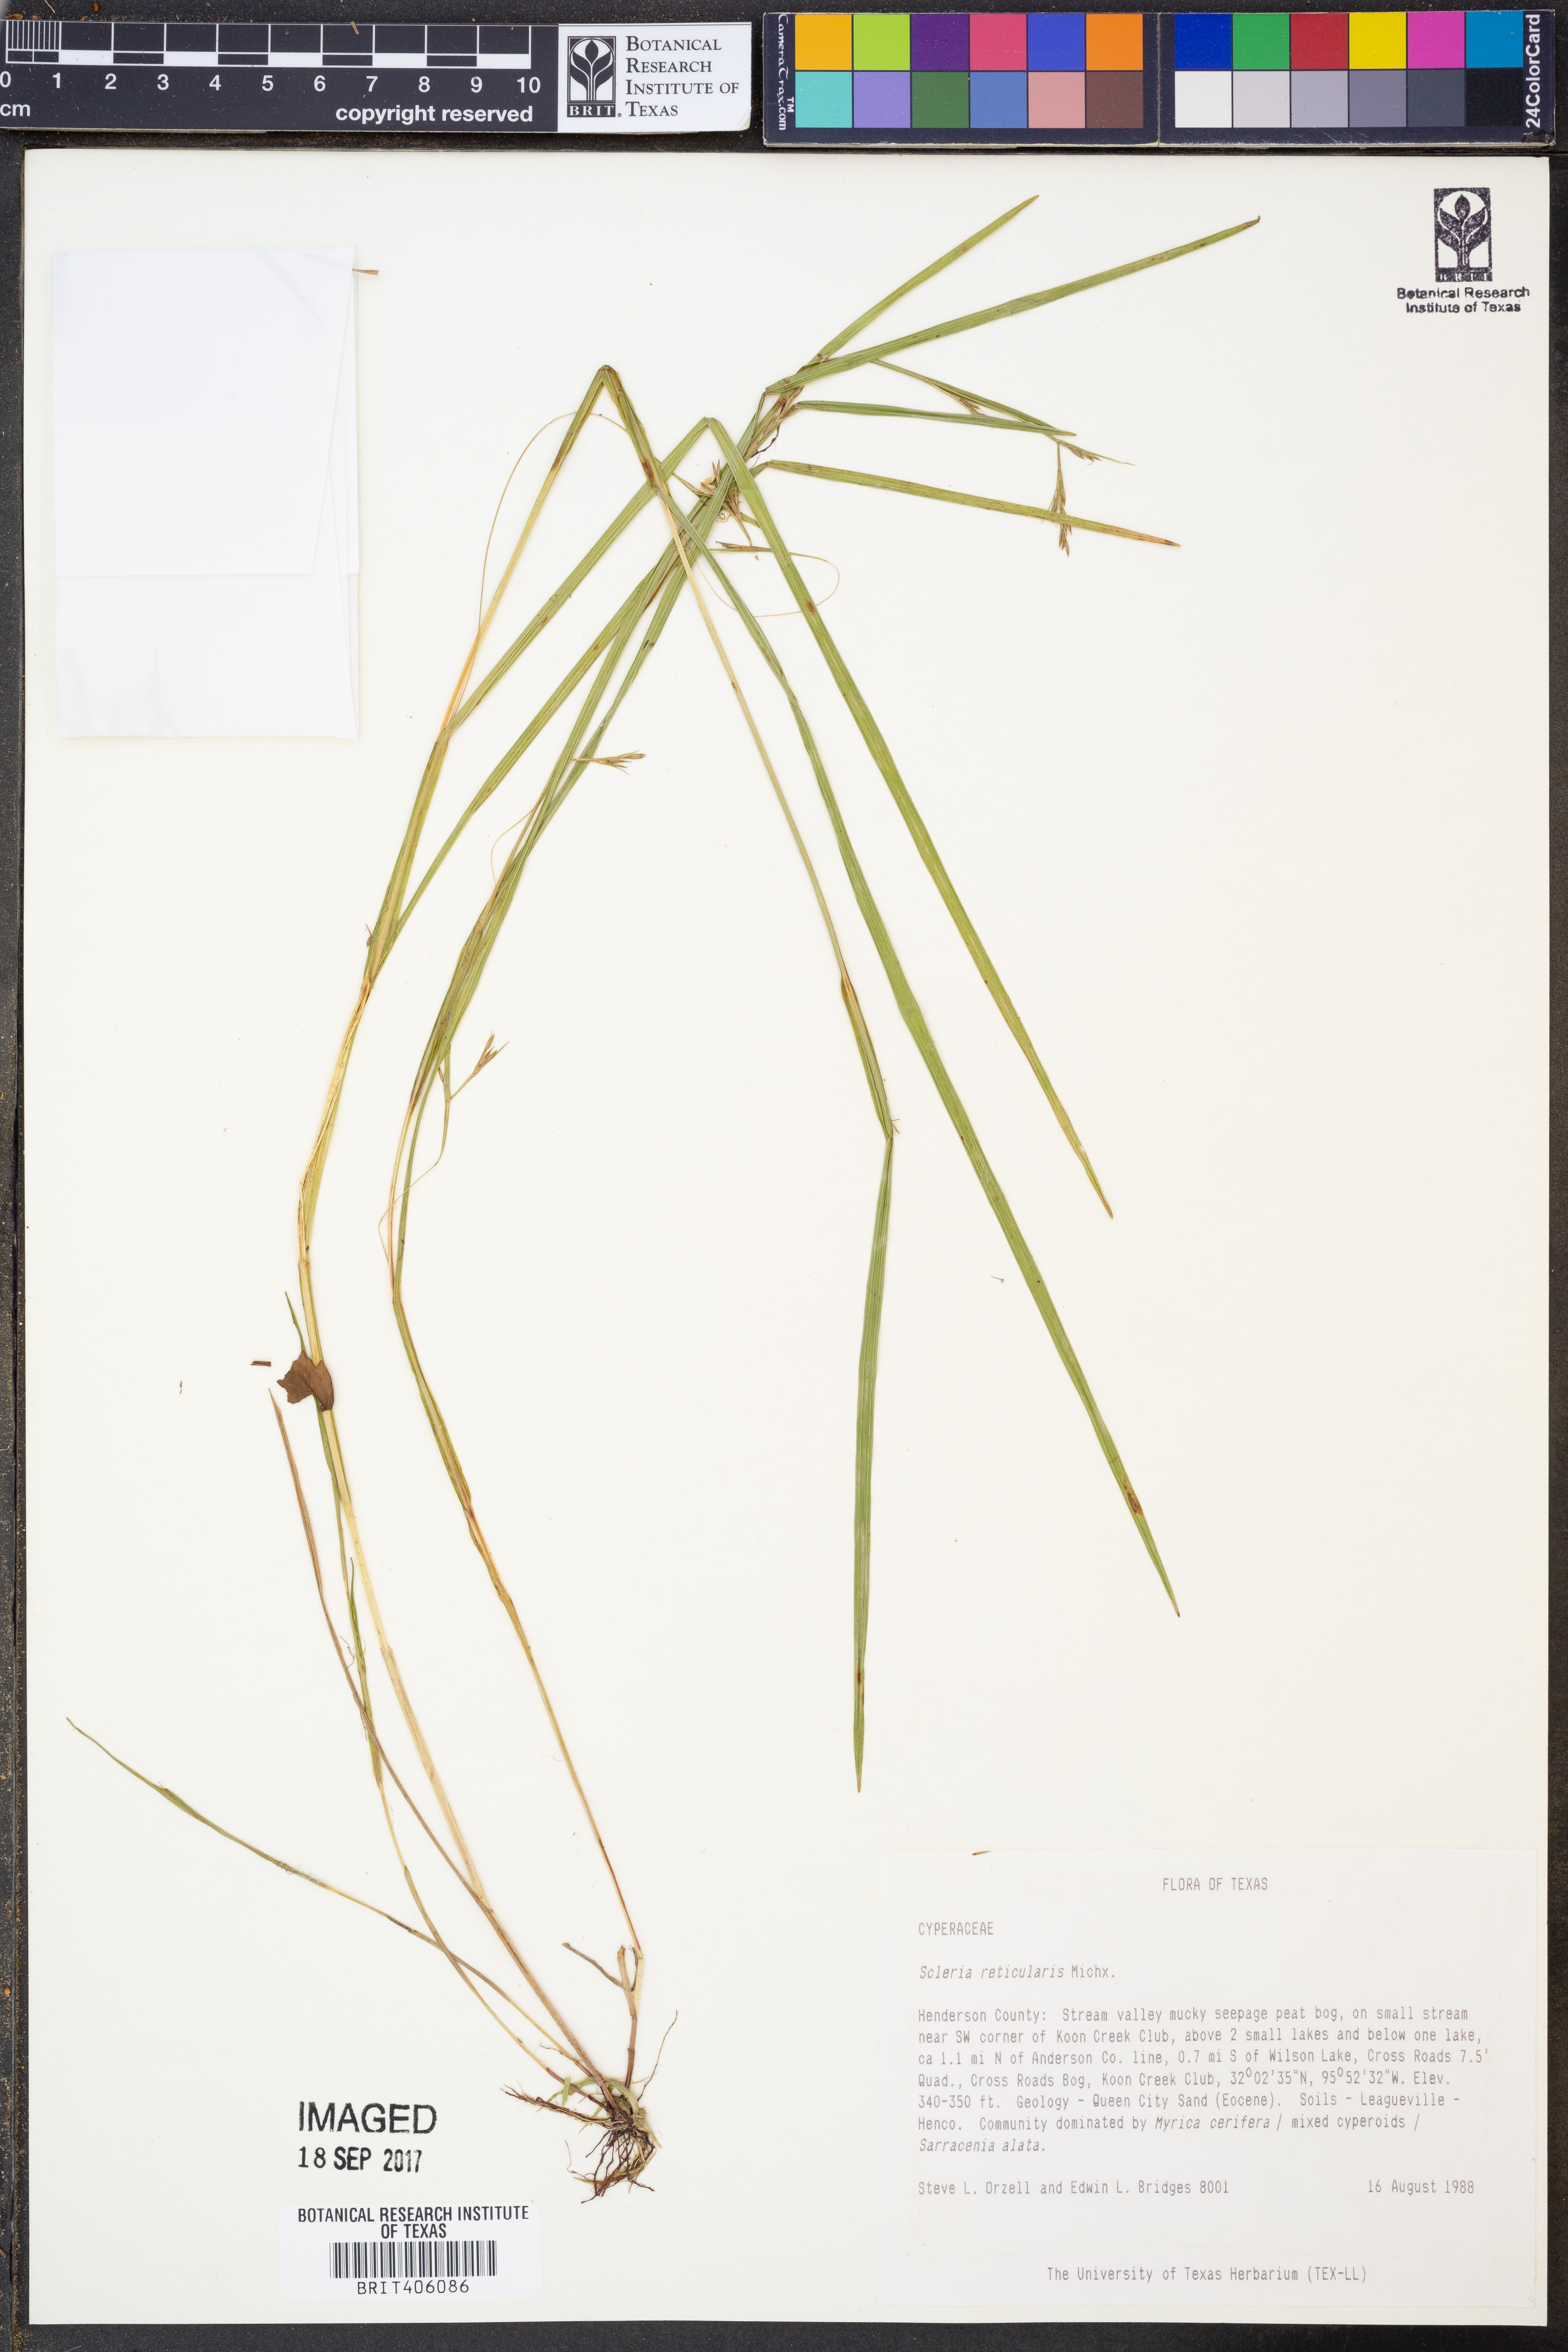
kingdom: Plantae
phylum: Tracheophyta
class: Liliopsida
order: Poales
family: Cyperaceae
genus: Scleria
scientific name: Scleria reticularis
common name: Netted nutrush
